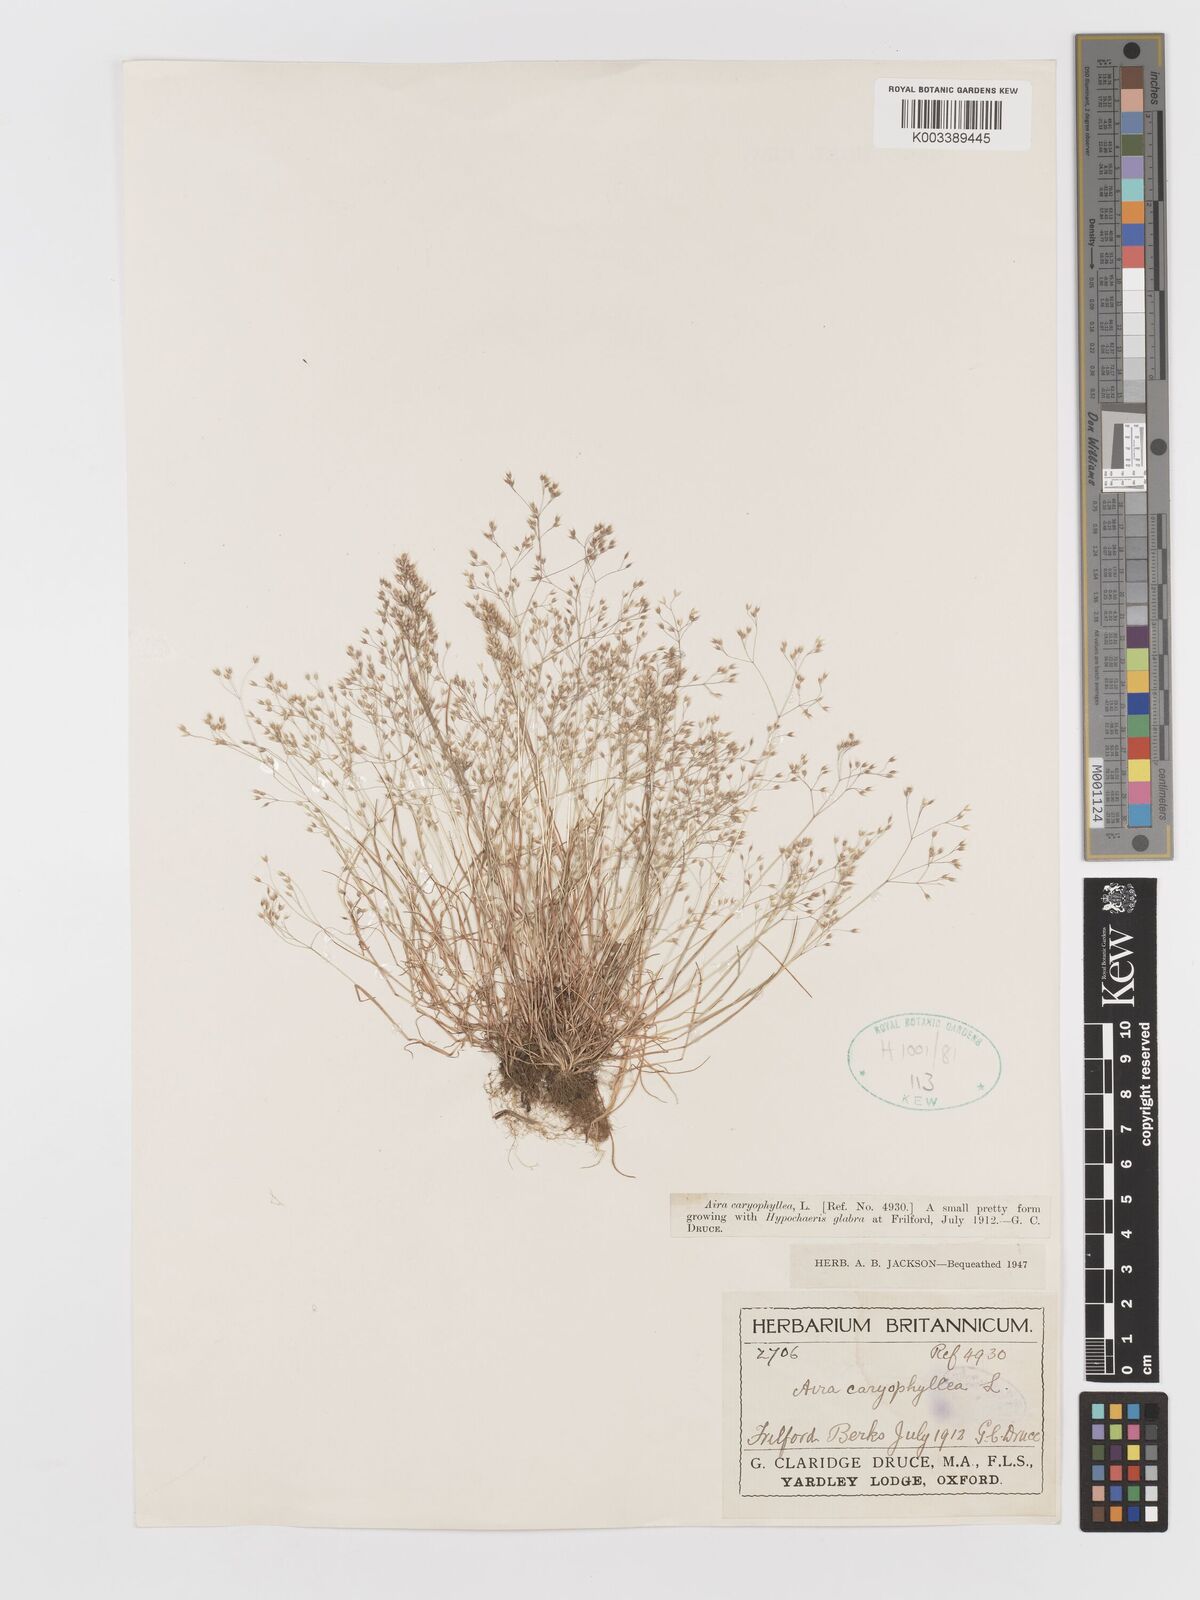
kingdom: Plantae
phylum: Tracheophyta
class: Liliopsida
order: Poales
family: Poaceae
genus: Aira
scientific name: Aira caryophyllea
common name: Silver hairgrass
